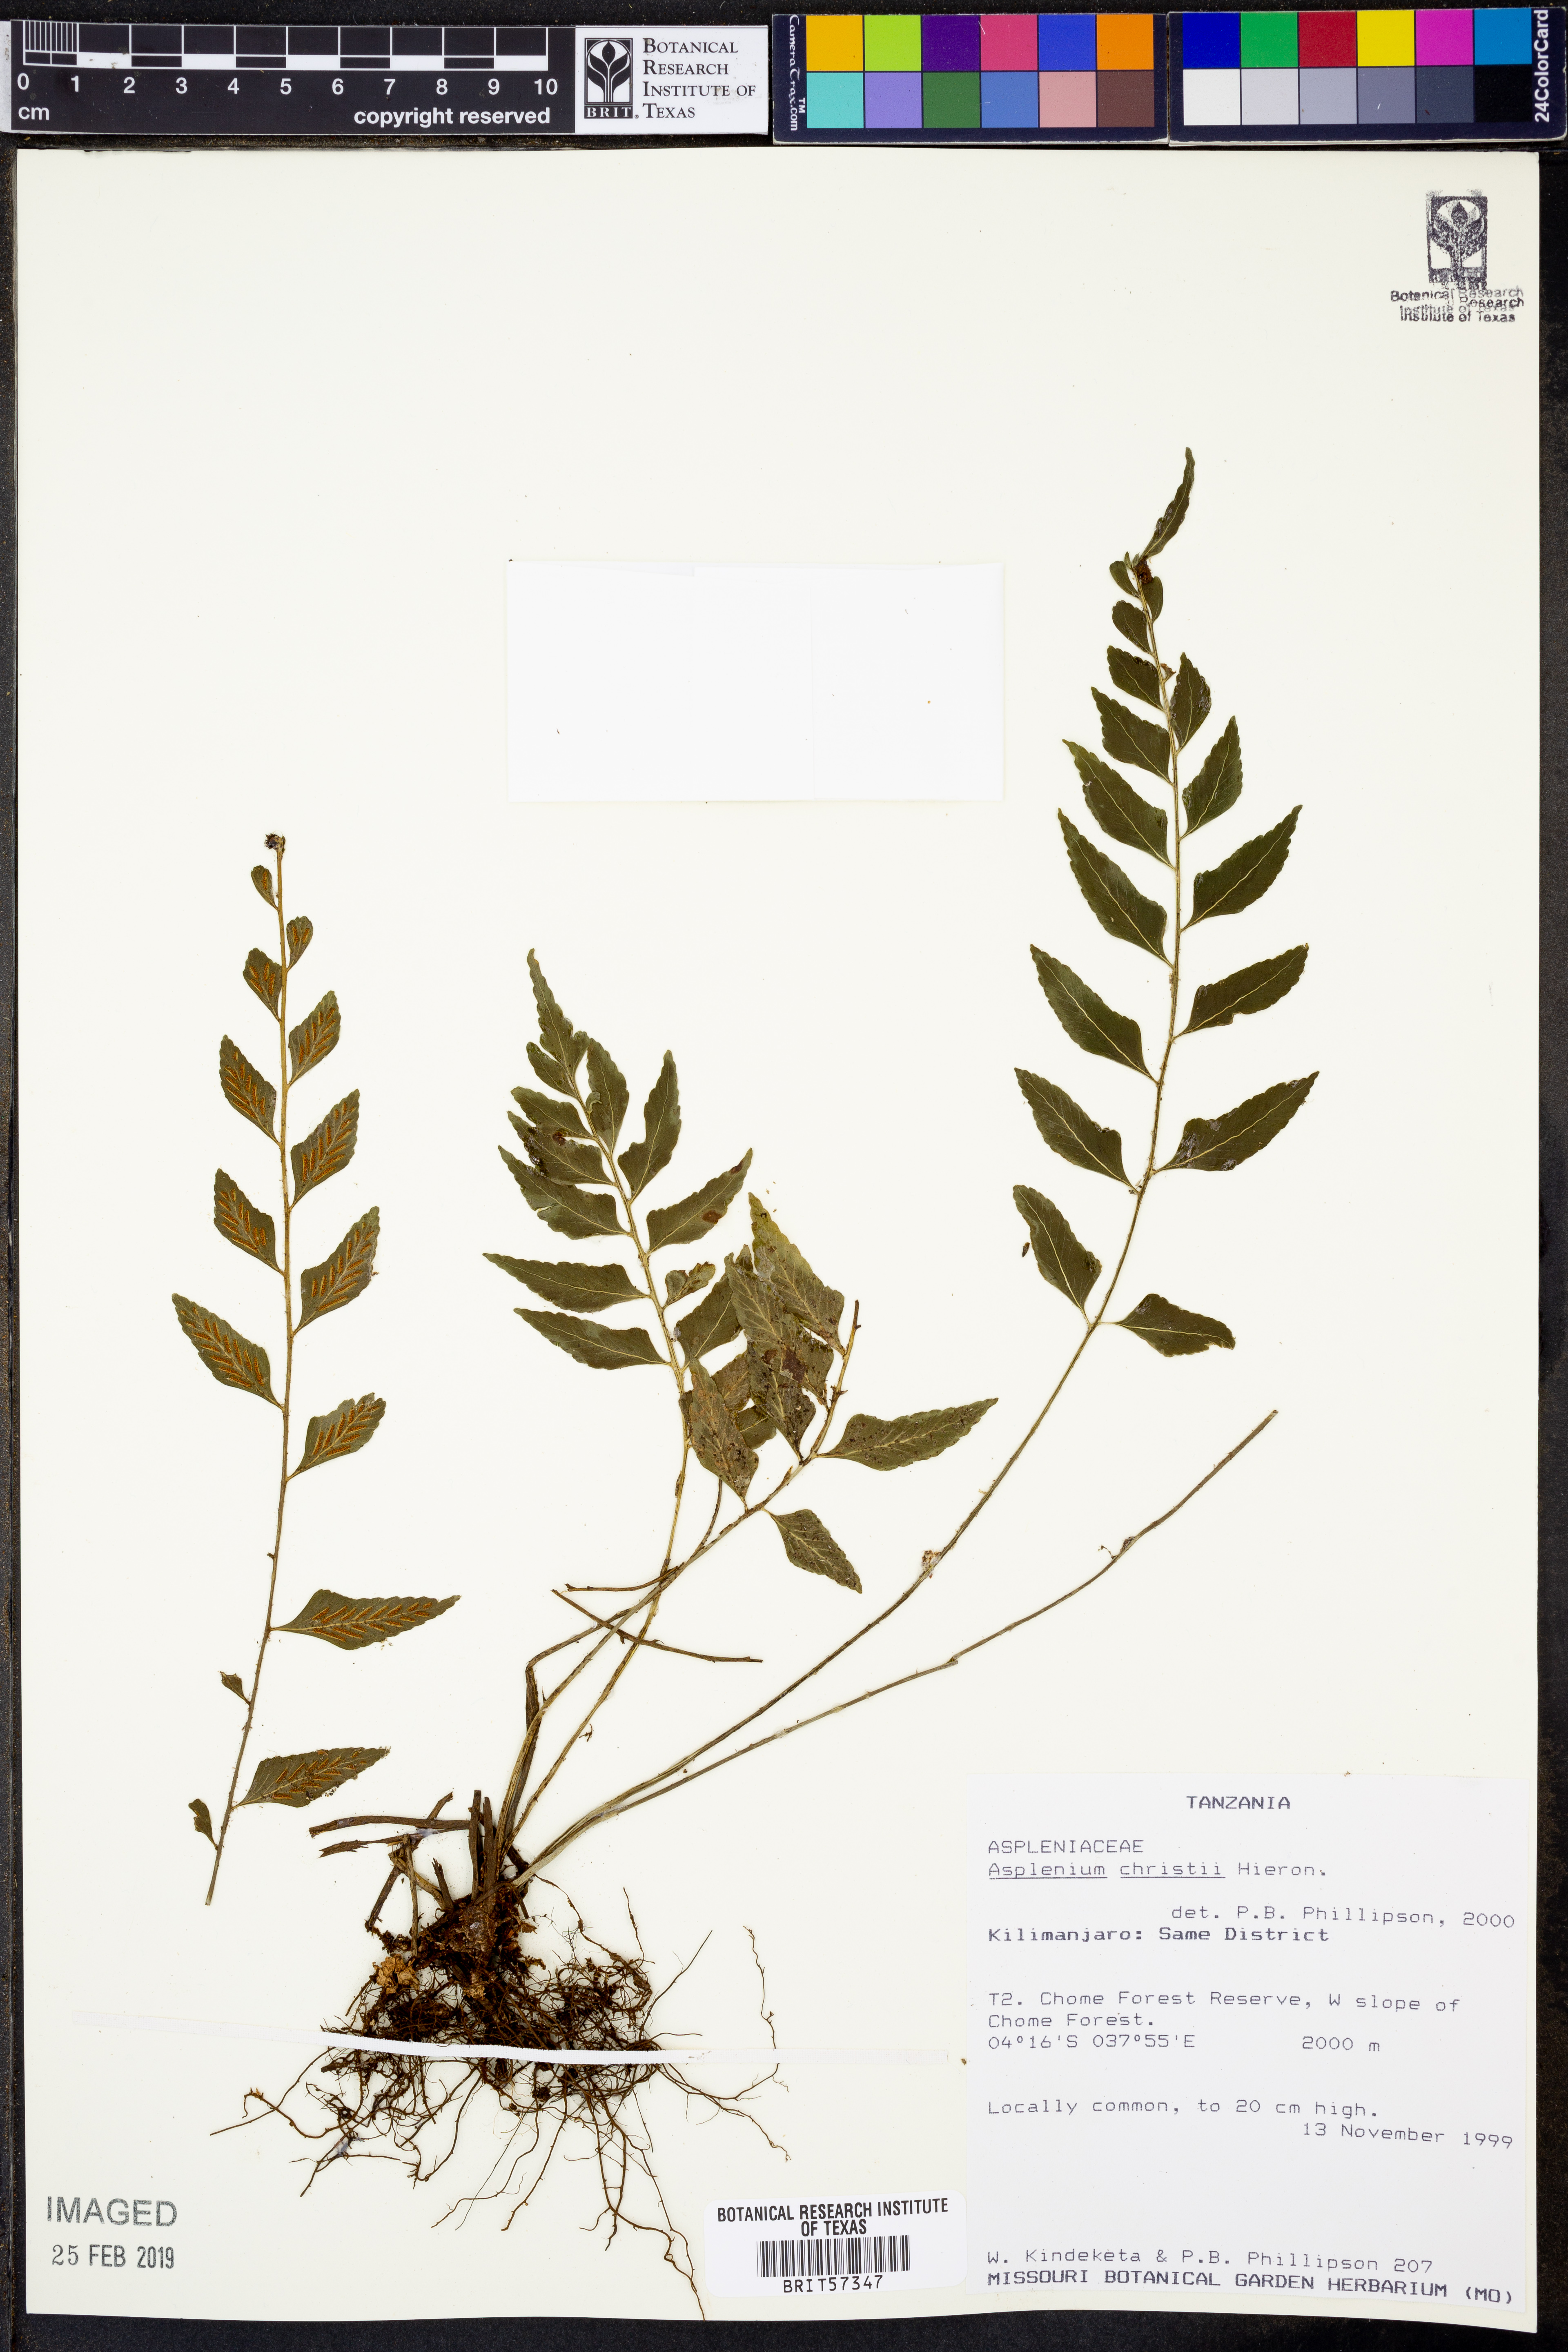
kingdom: Plantae
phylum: Tracheophyta
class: Polypodiopsida
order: Polypodiales
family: Aspleniaceae
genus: Asplenium
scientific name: Asplenium christii
